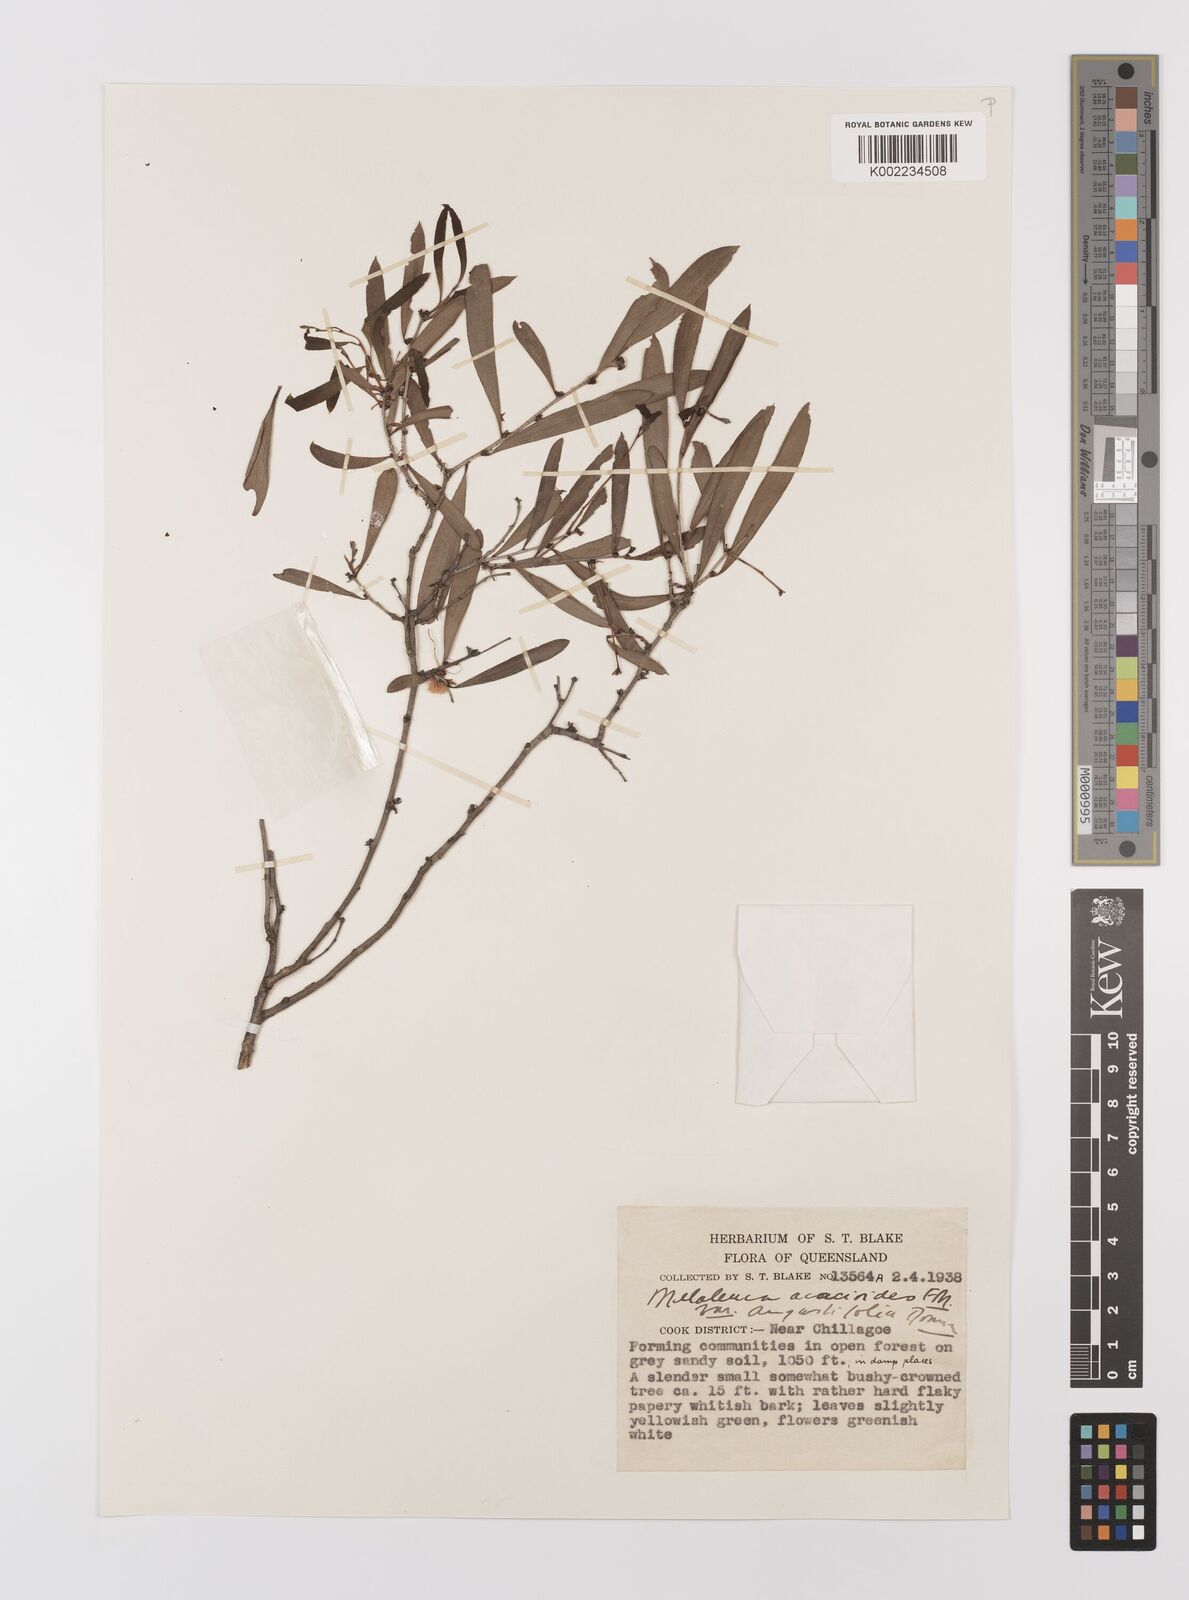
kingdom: Plantae
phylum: Tracheophyta
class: Magnoliopsida
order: Myrtales
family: Myrtaceae
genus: Melaleuca
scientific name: Melaleuca citrolens
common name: Lemon-scented paperbark
